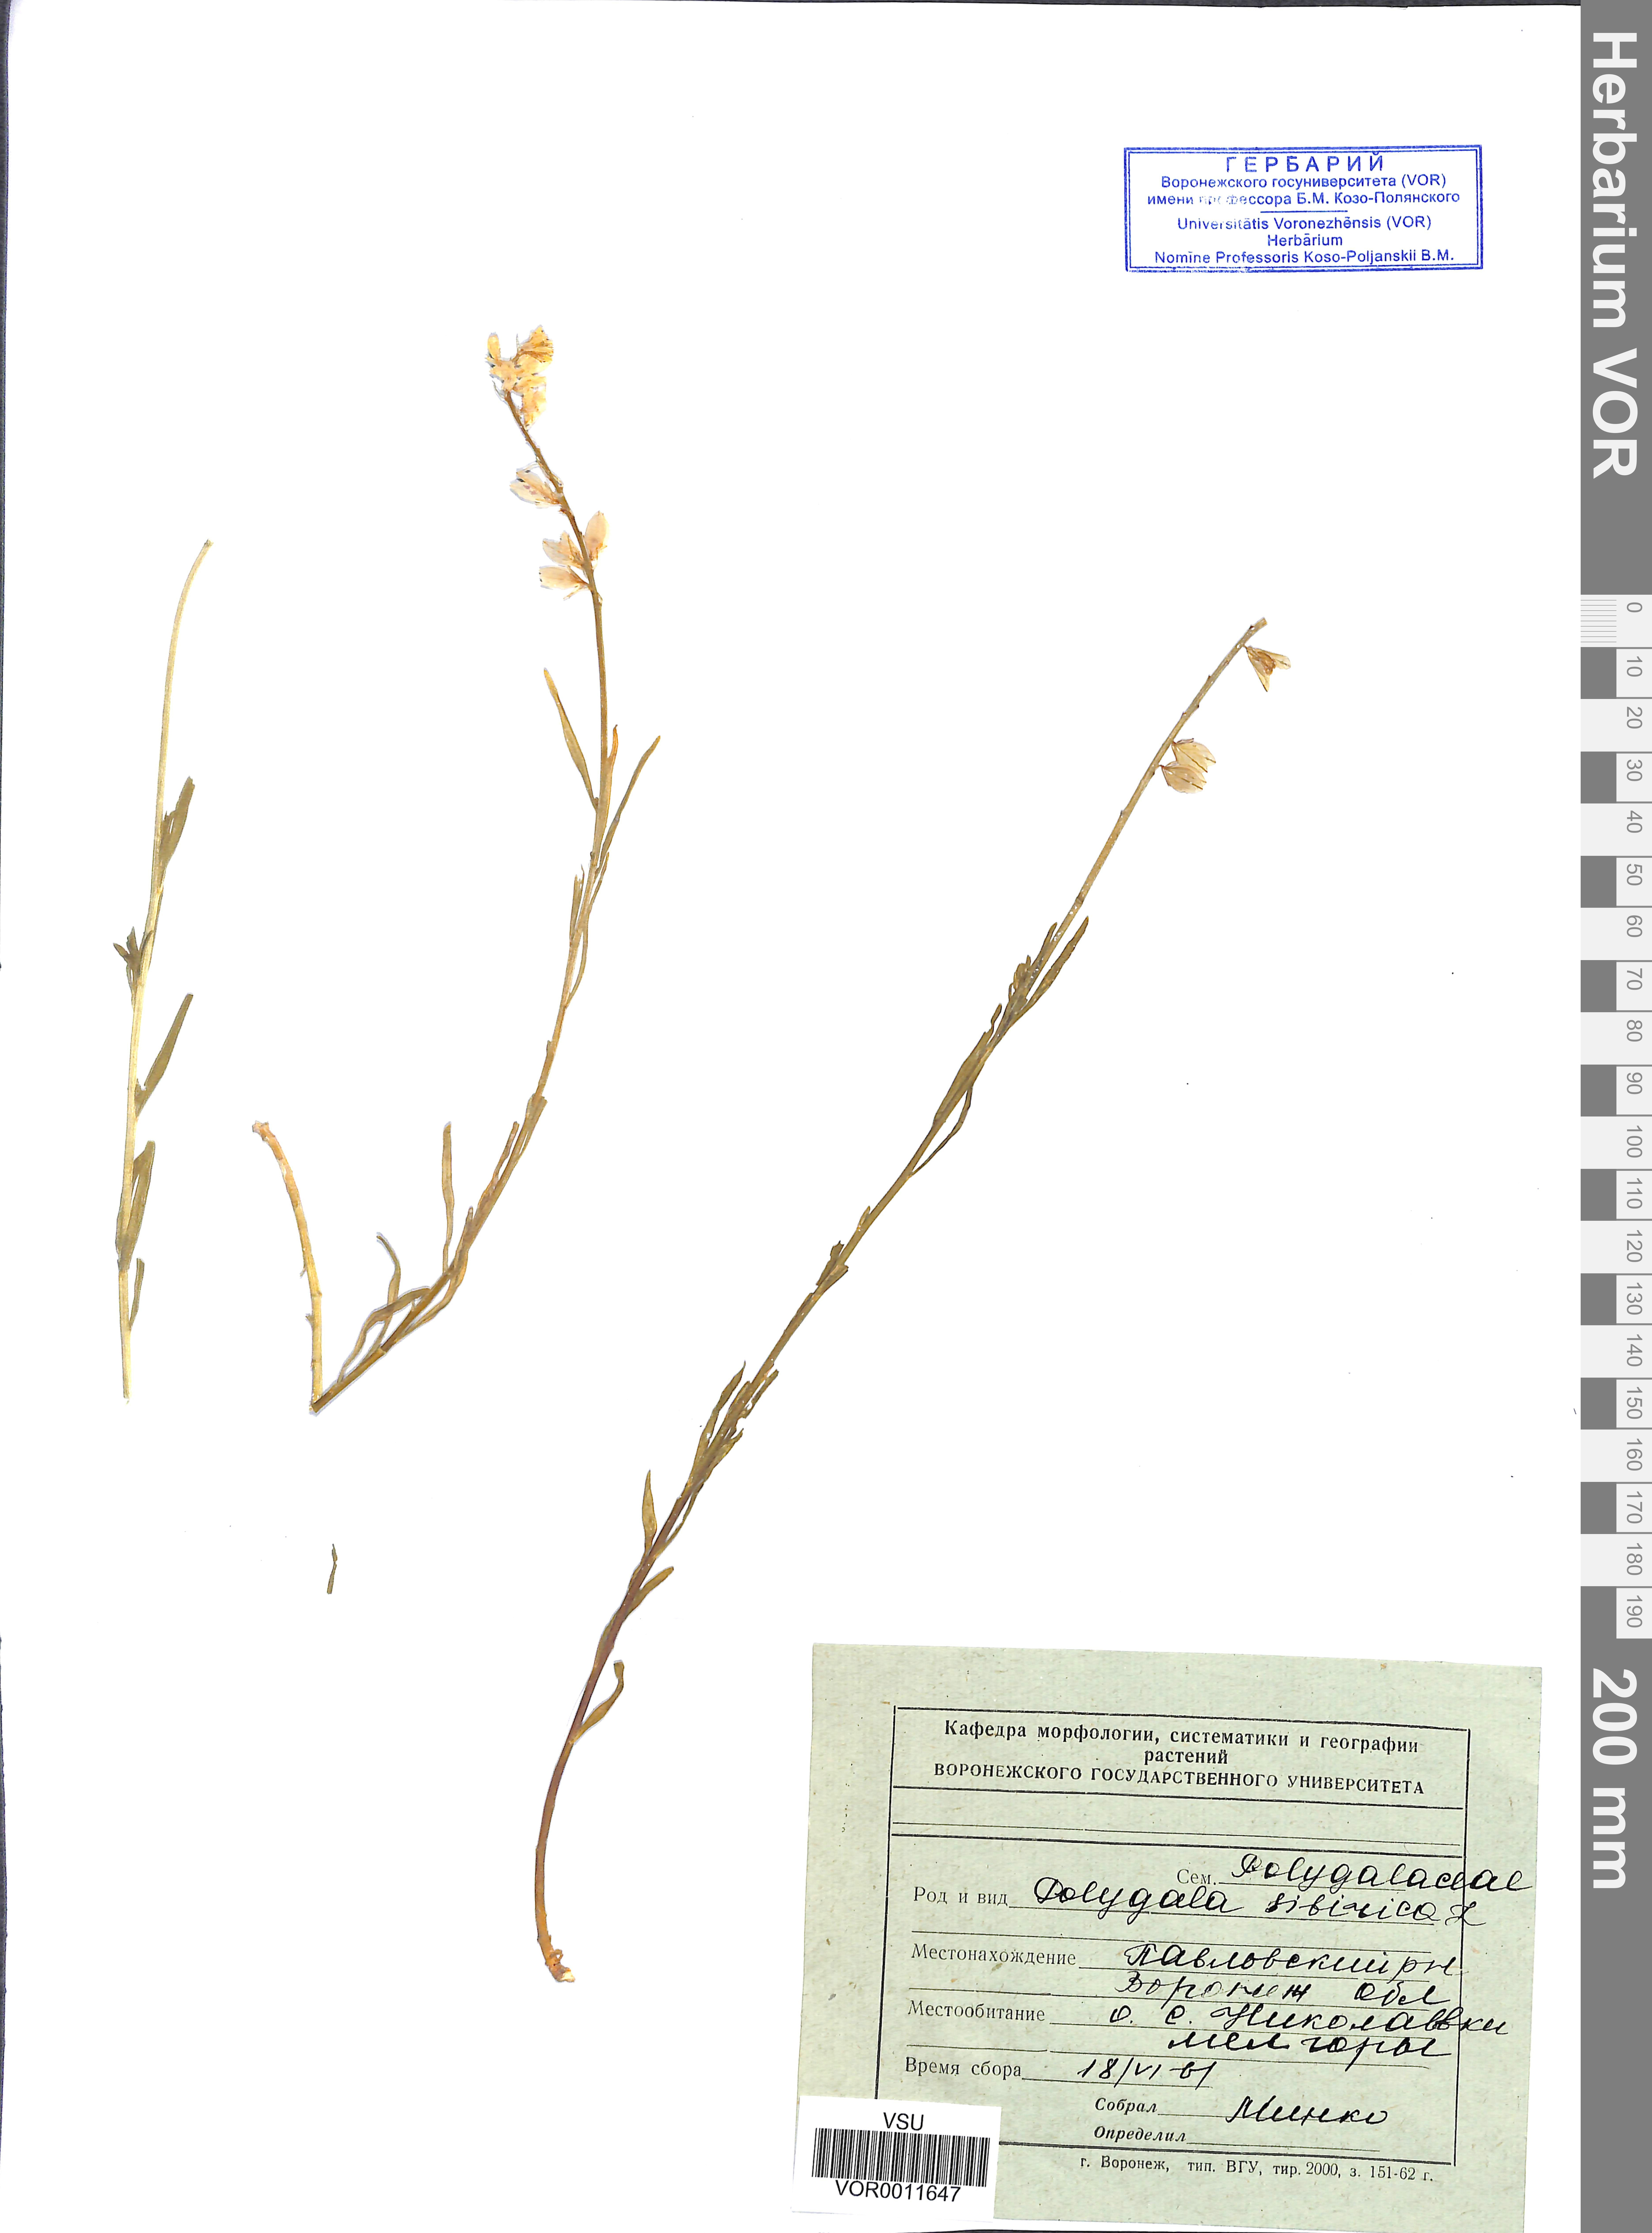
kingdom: Plantae
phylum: Tracheophyta
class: Magnoliopsida
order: Fabales
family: Polygalaceae
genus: Polygala
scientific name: Polygala sibirica
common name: Siberian polygala
